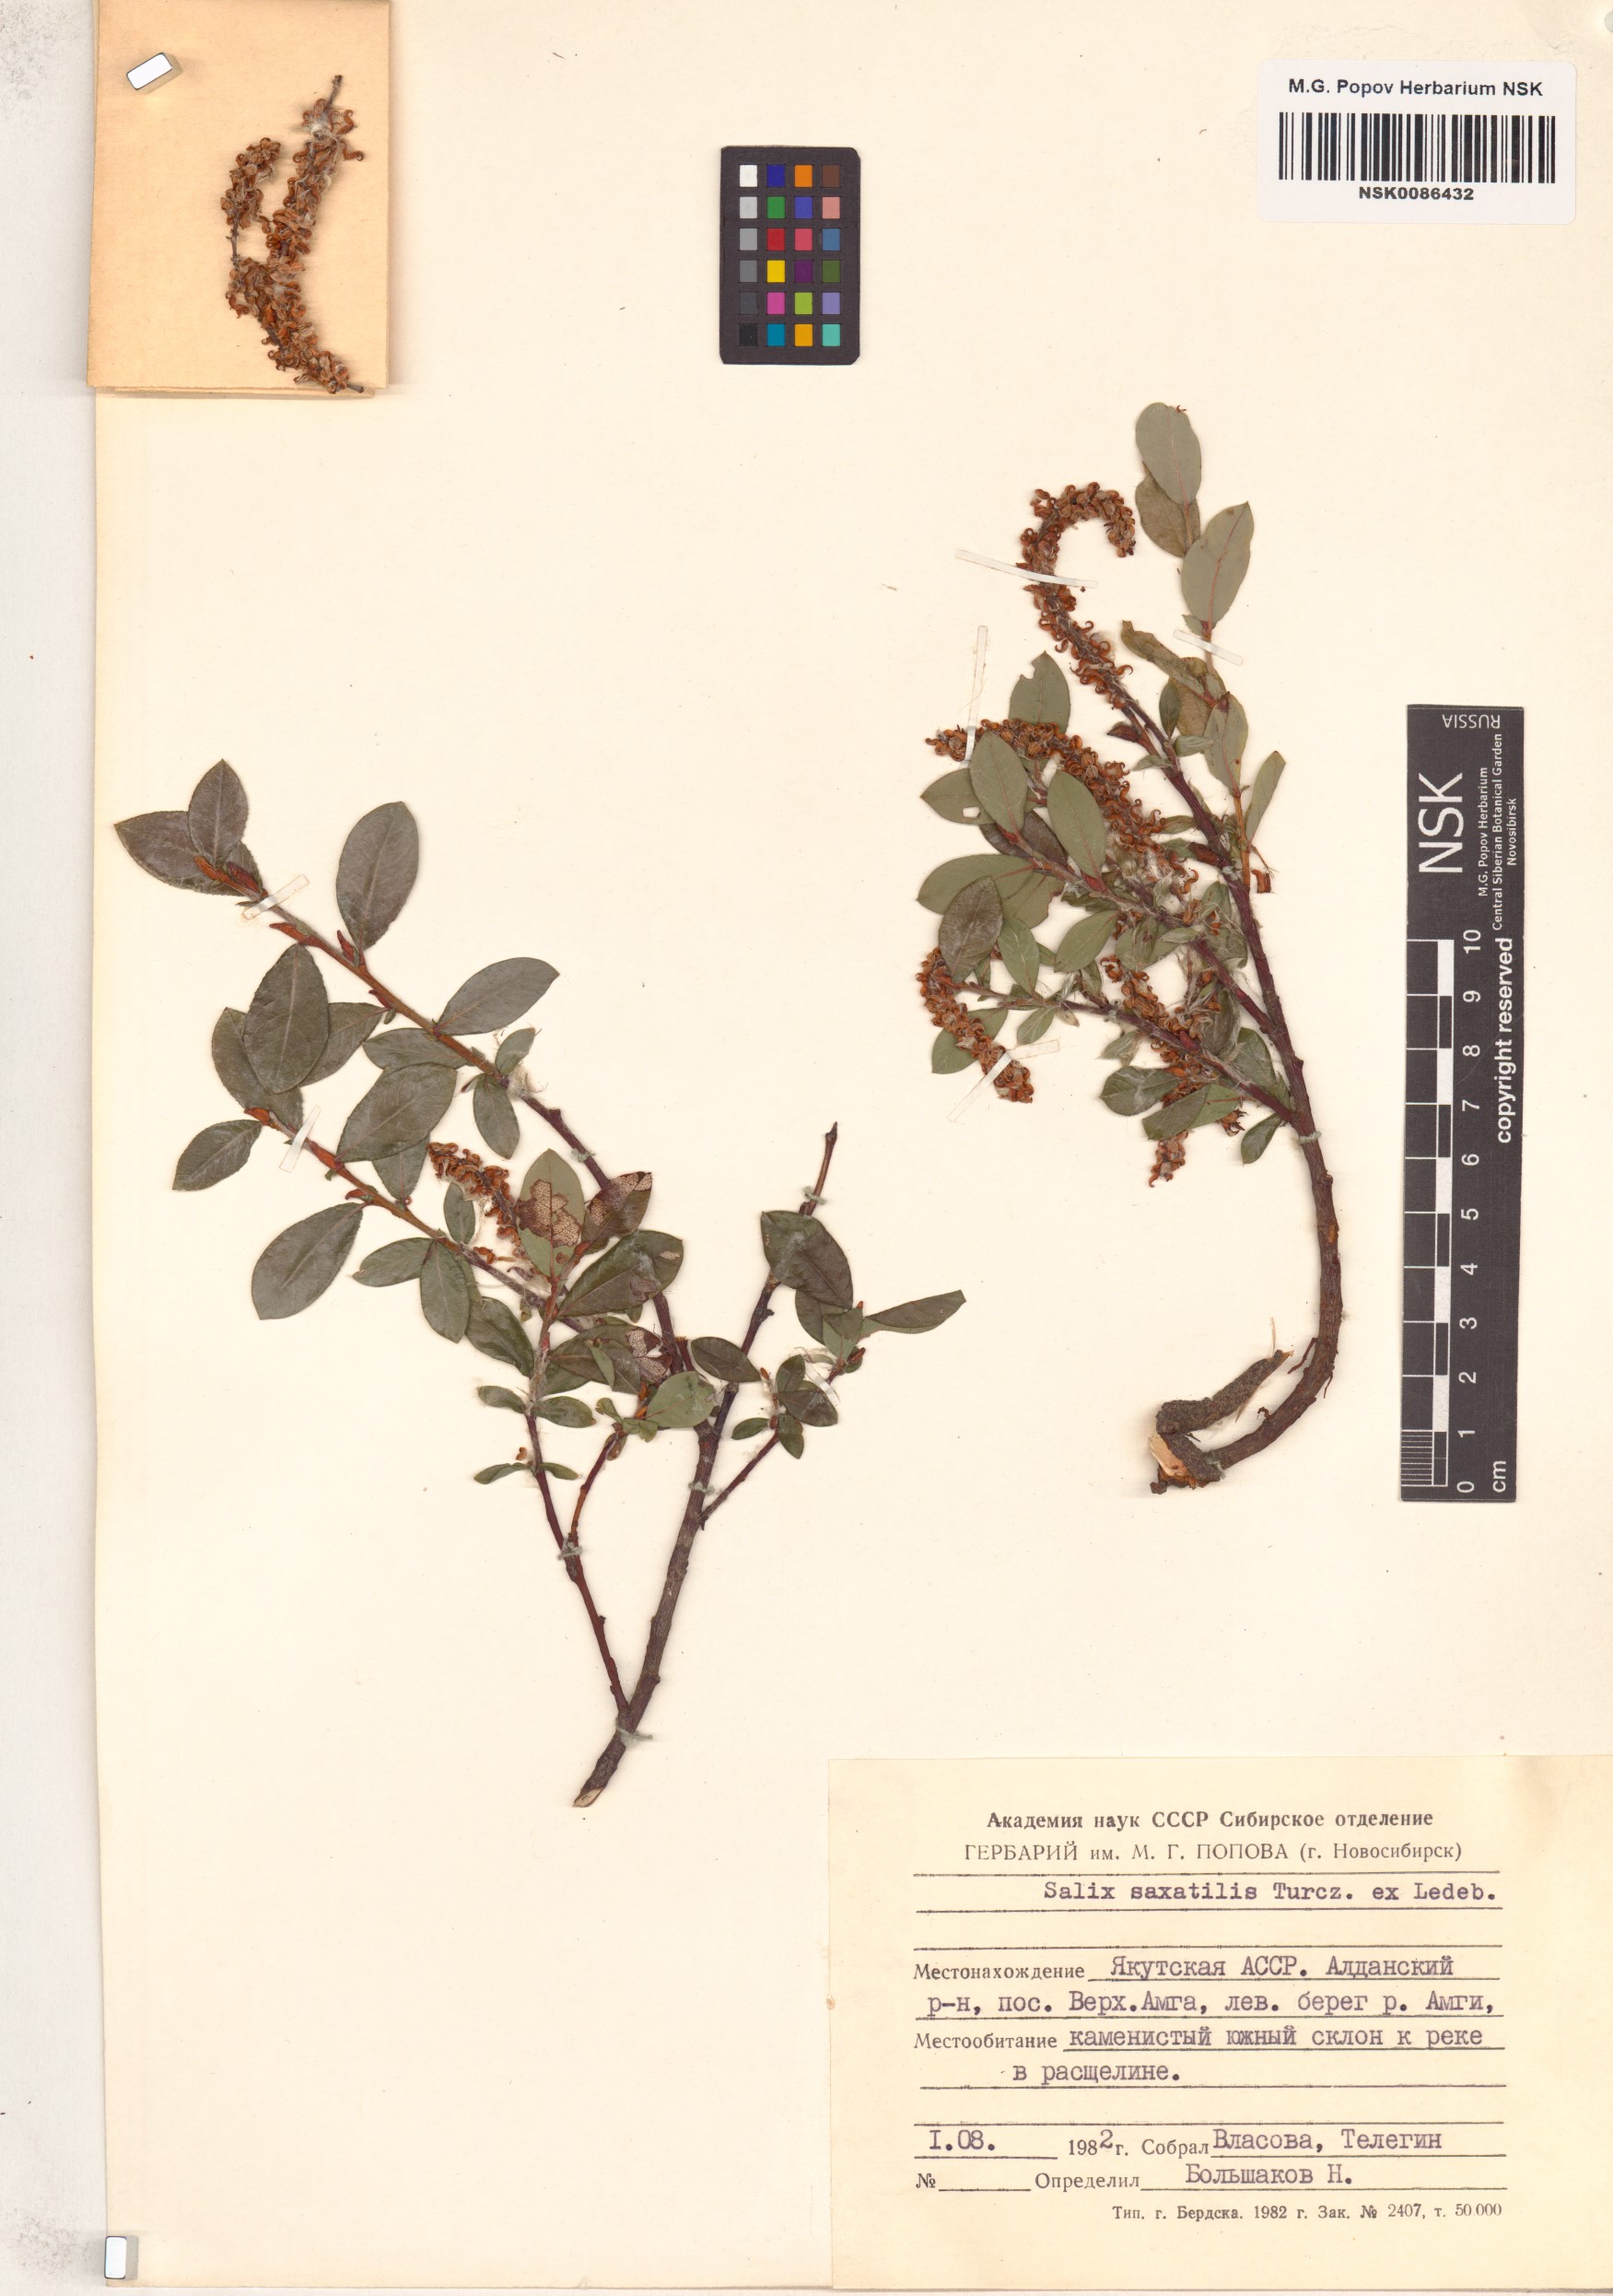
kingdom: Plantae
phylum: Tracheophyta
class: Magnoliopsida
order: Malpighiales
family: Salicaceae
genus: Salix
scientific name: Salix saxatilis
